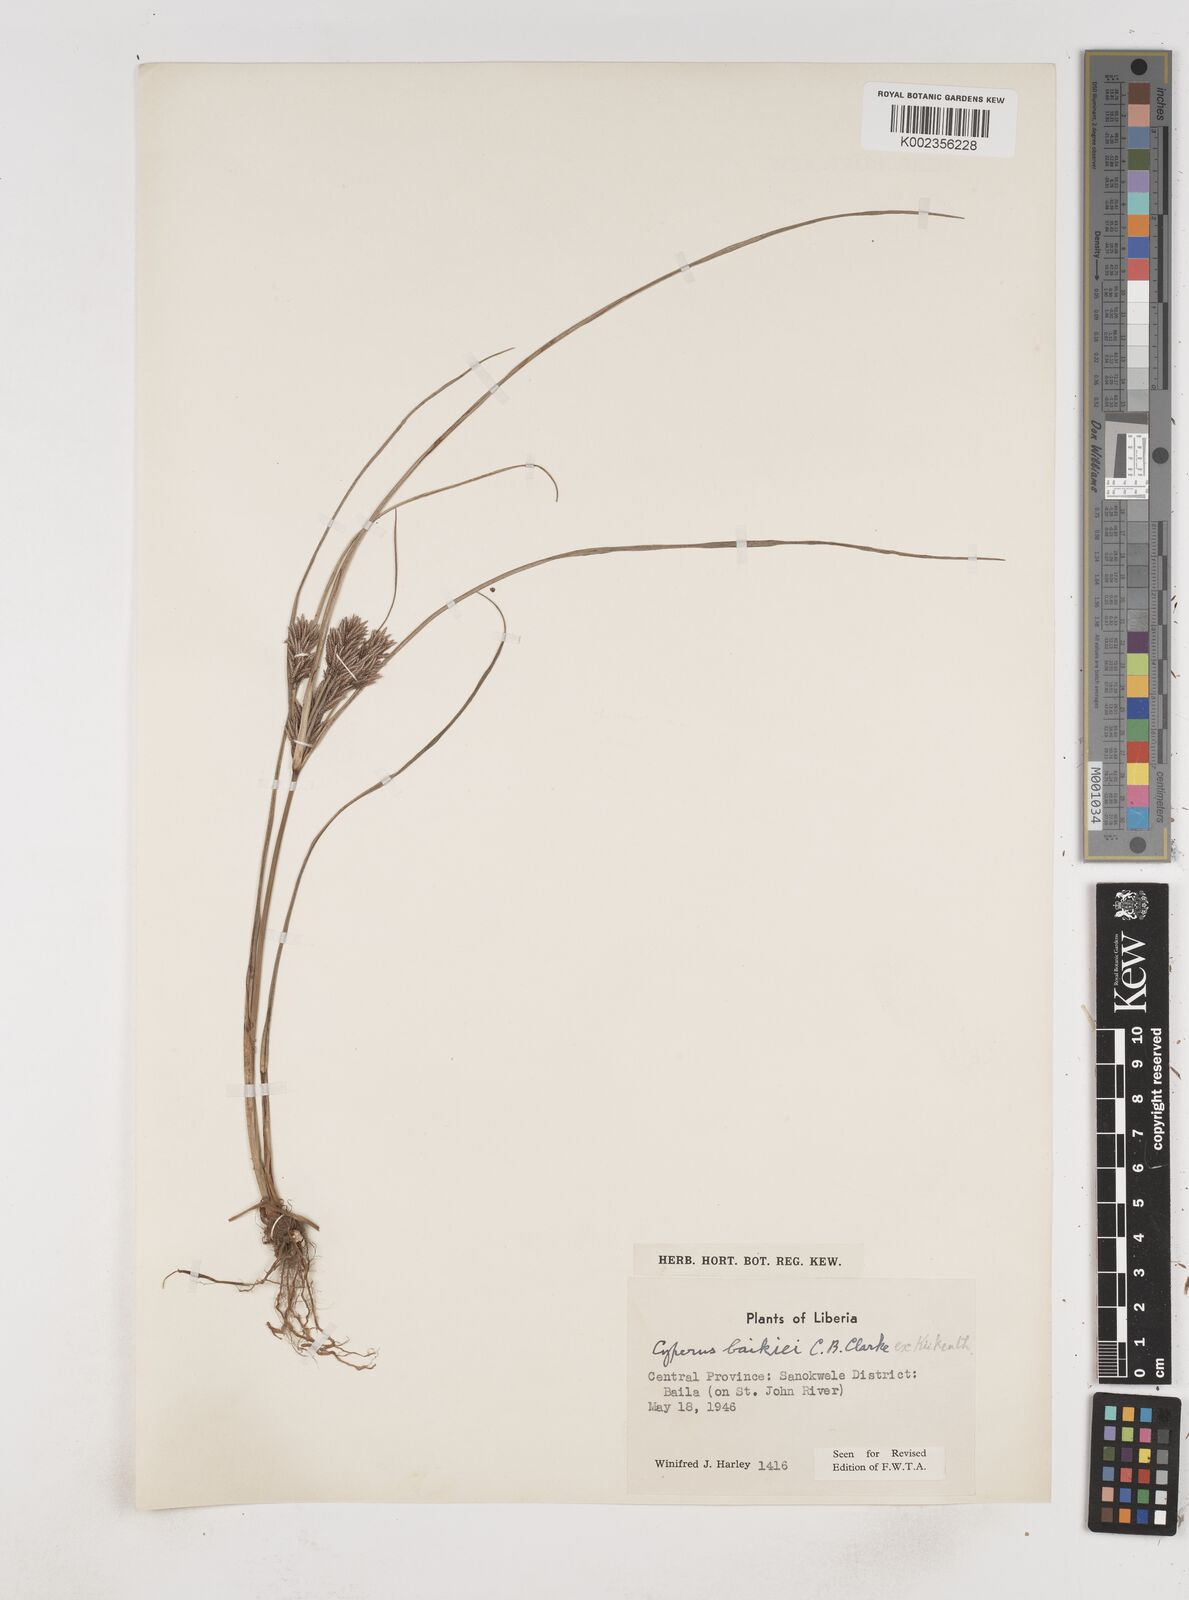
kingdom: Plantae
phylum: Tracheophyta
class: Liliopsida
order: Poales
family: Cyperaceae
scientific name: Cyperaceae
